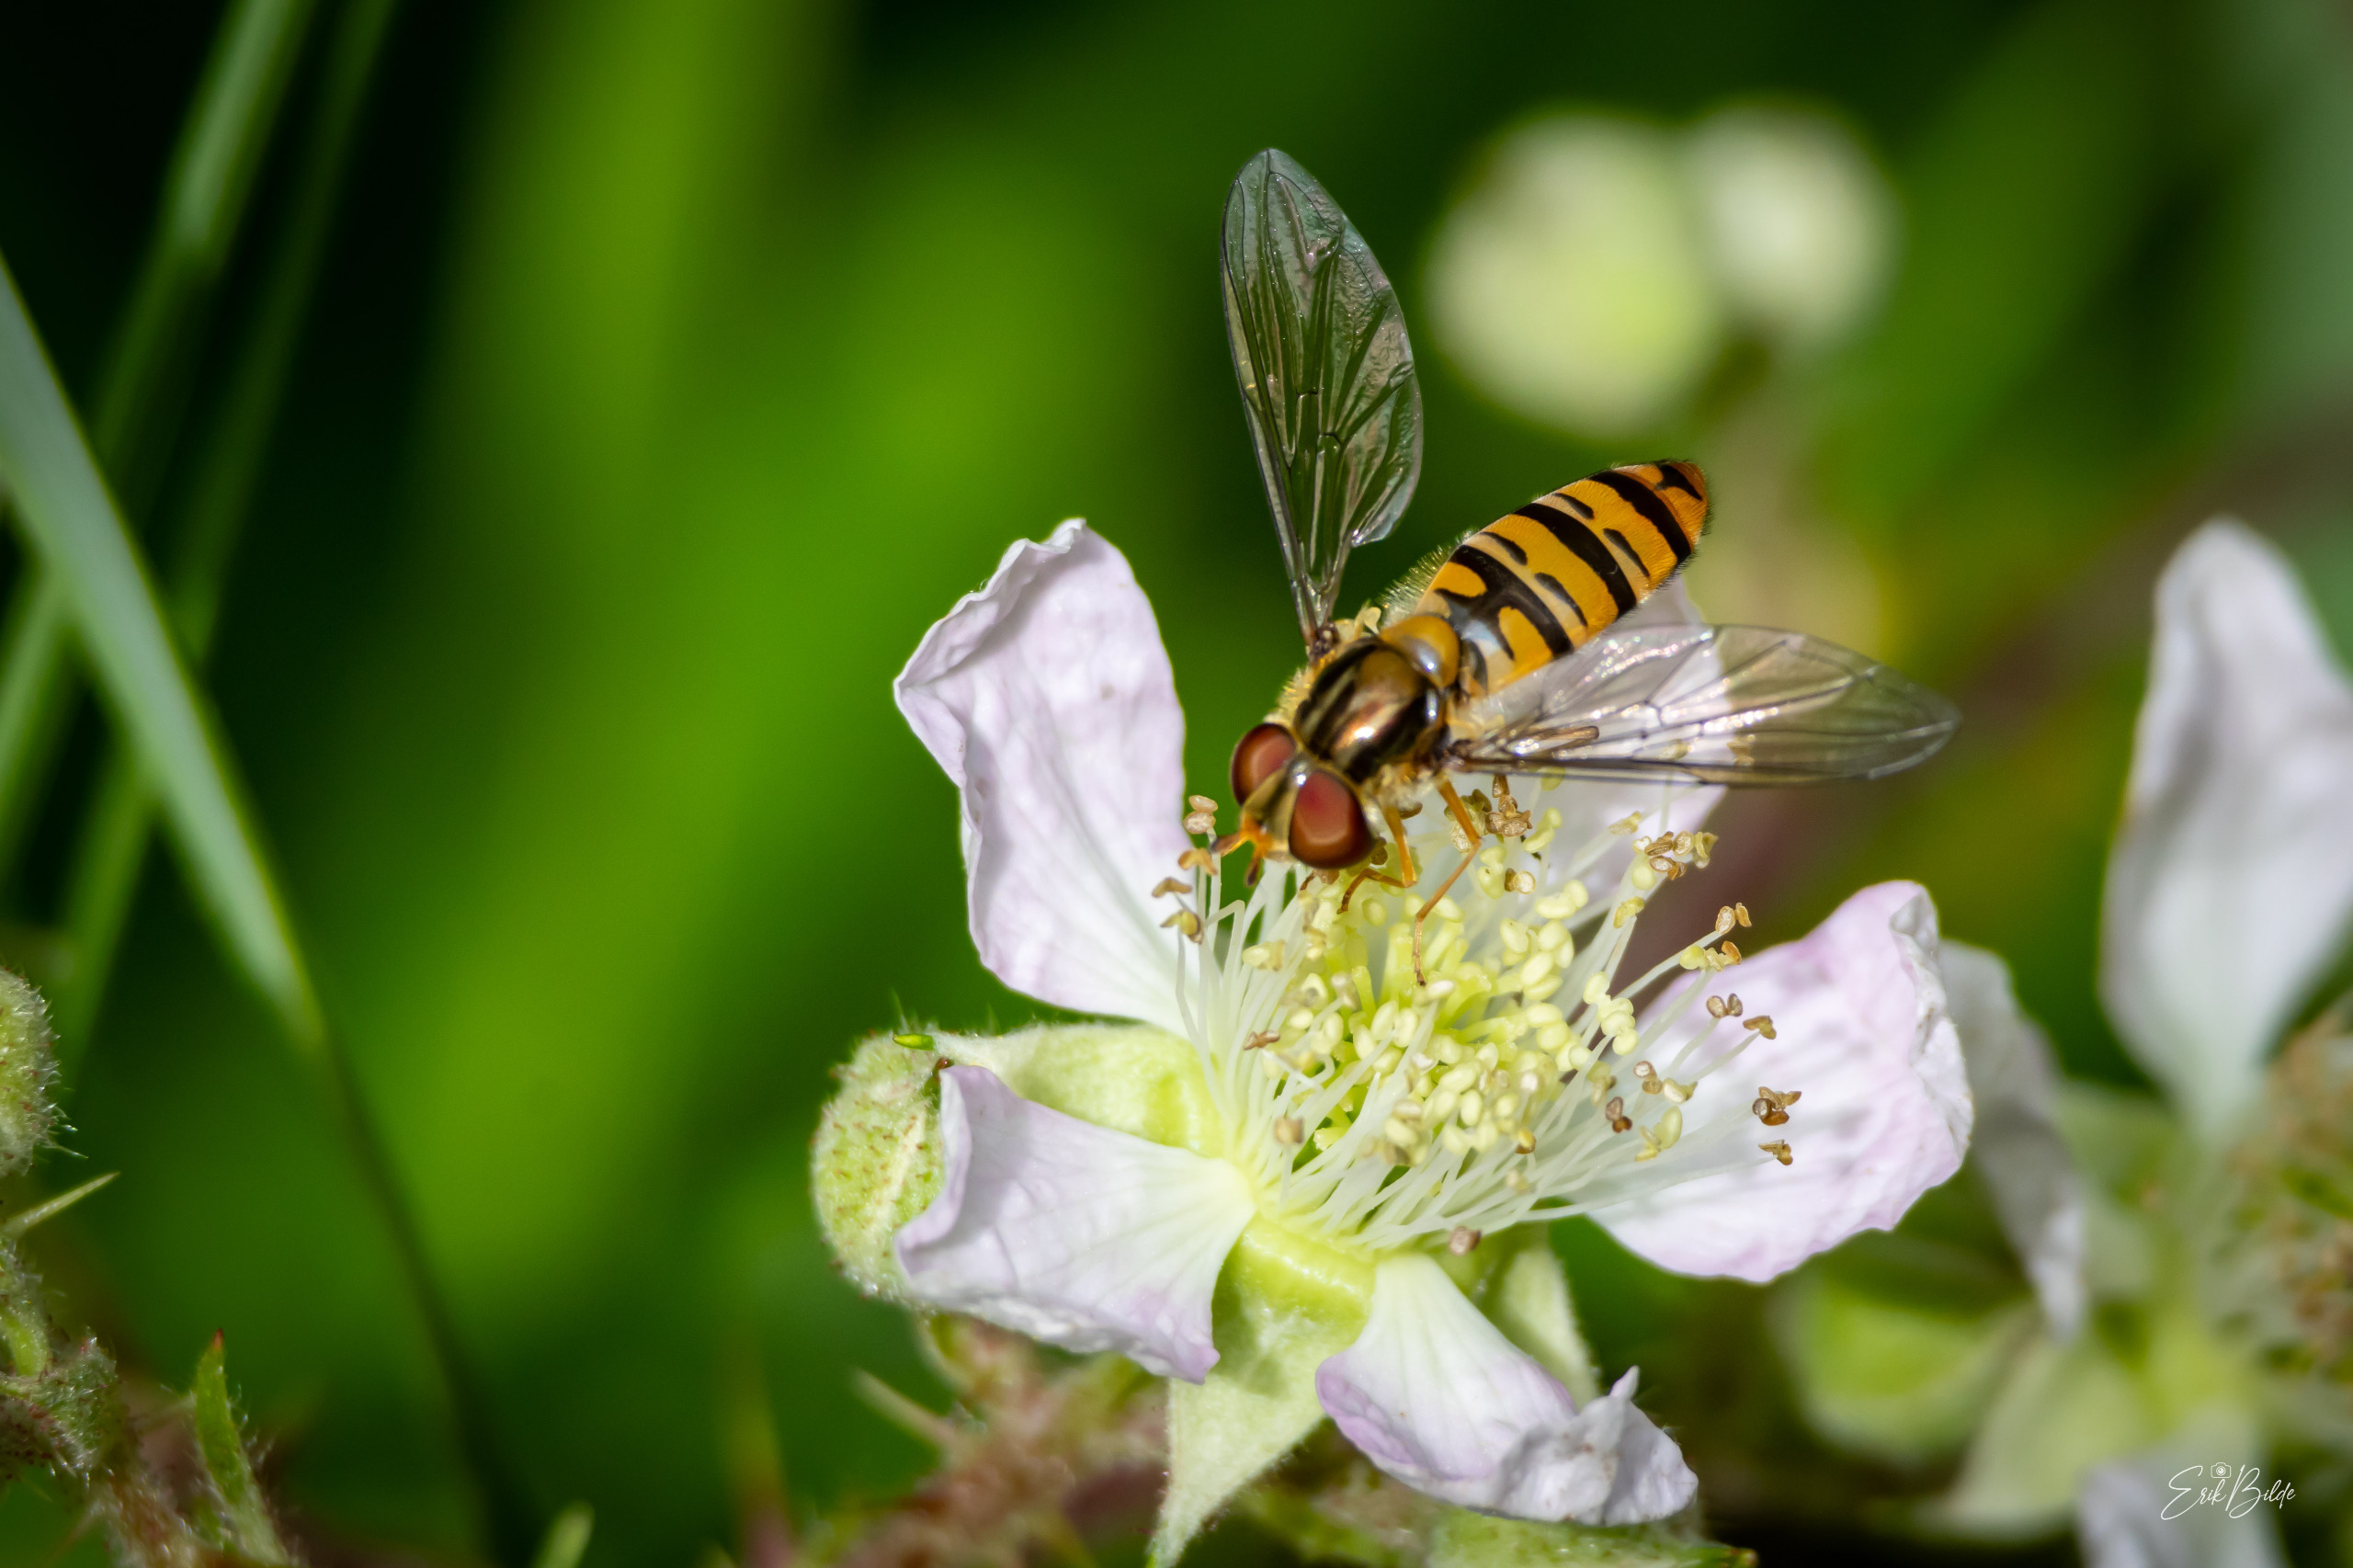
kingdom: Animalia
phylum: Arthropoda
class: Insecta
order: Diptera
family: Syrphidae
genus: Episyrphus
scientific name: Episyrphus balteatus
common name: Dobbeltbåndet svirreflue
